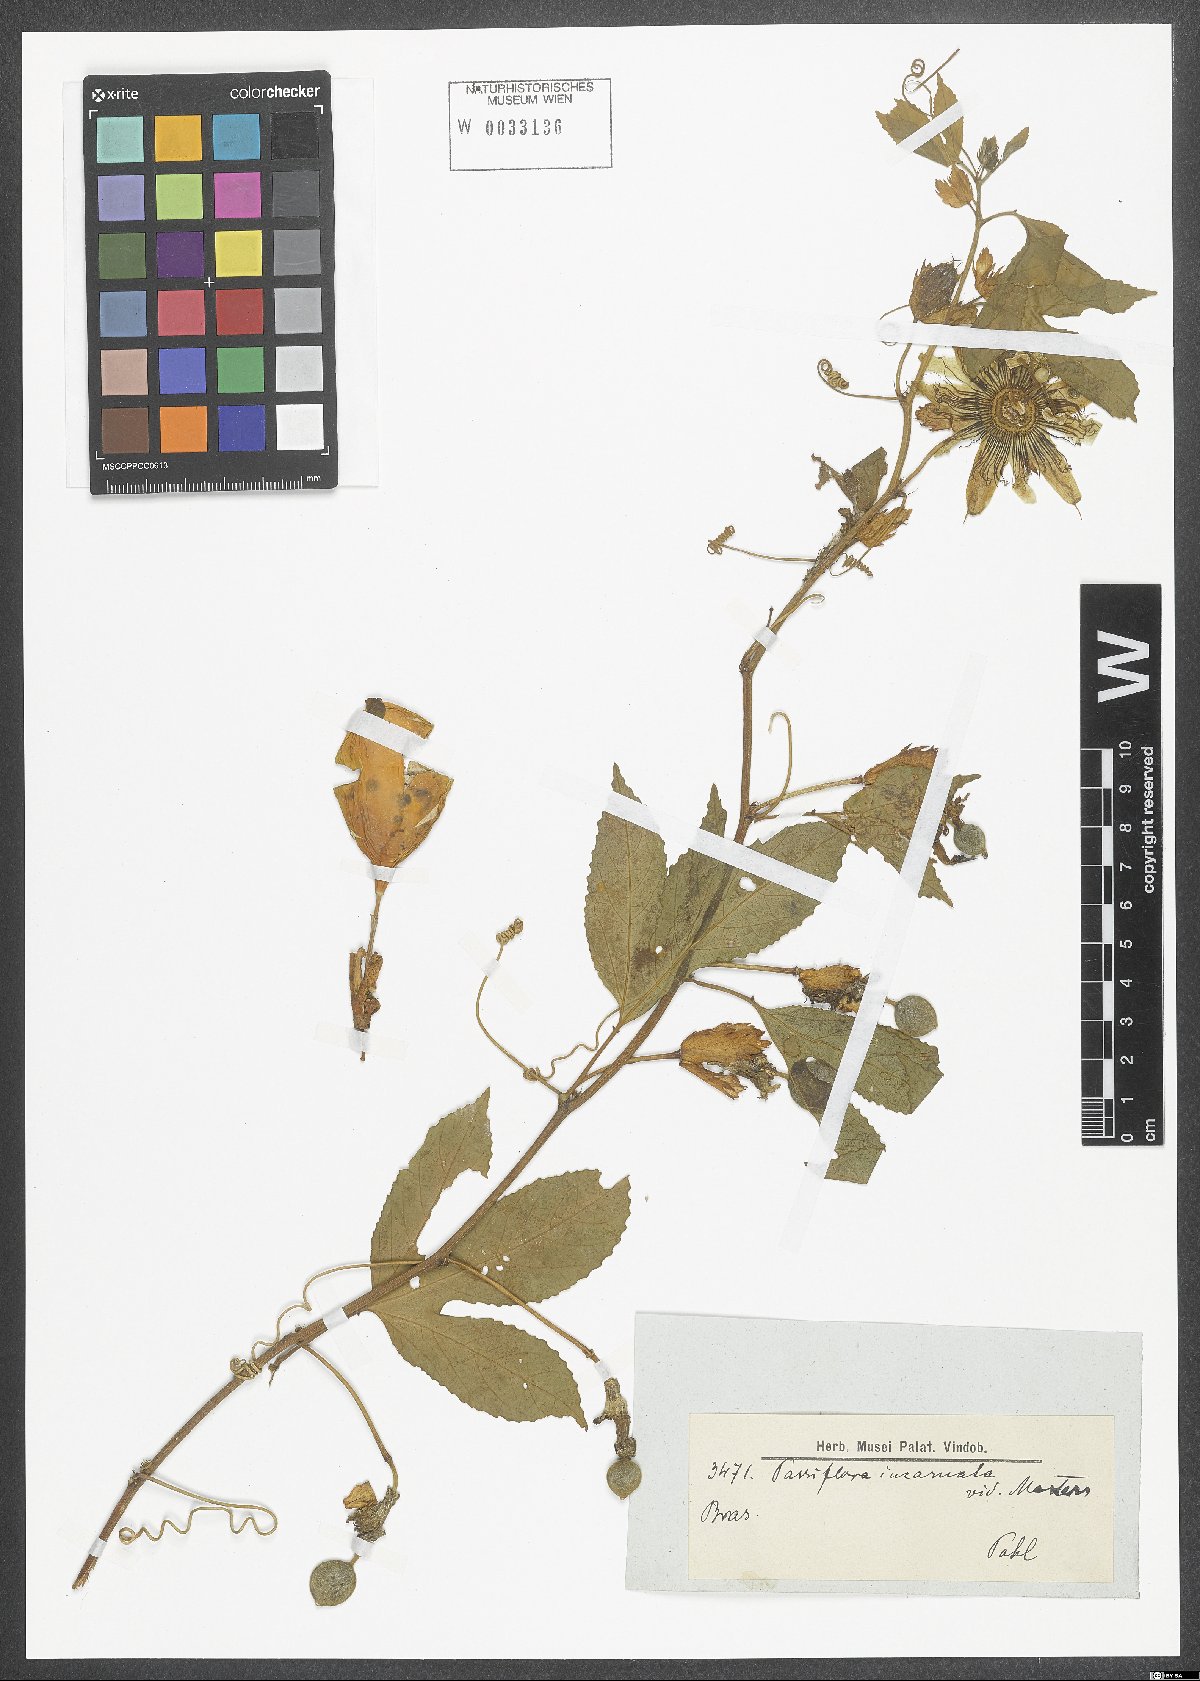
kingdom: Plantae
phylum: Tracheophyta
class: Magnoliopsida
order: Malpighiales
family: Passifloraceae
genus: Passiflora
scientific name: Passiflora incarnata
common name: Apricot-vine
